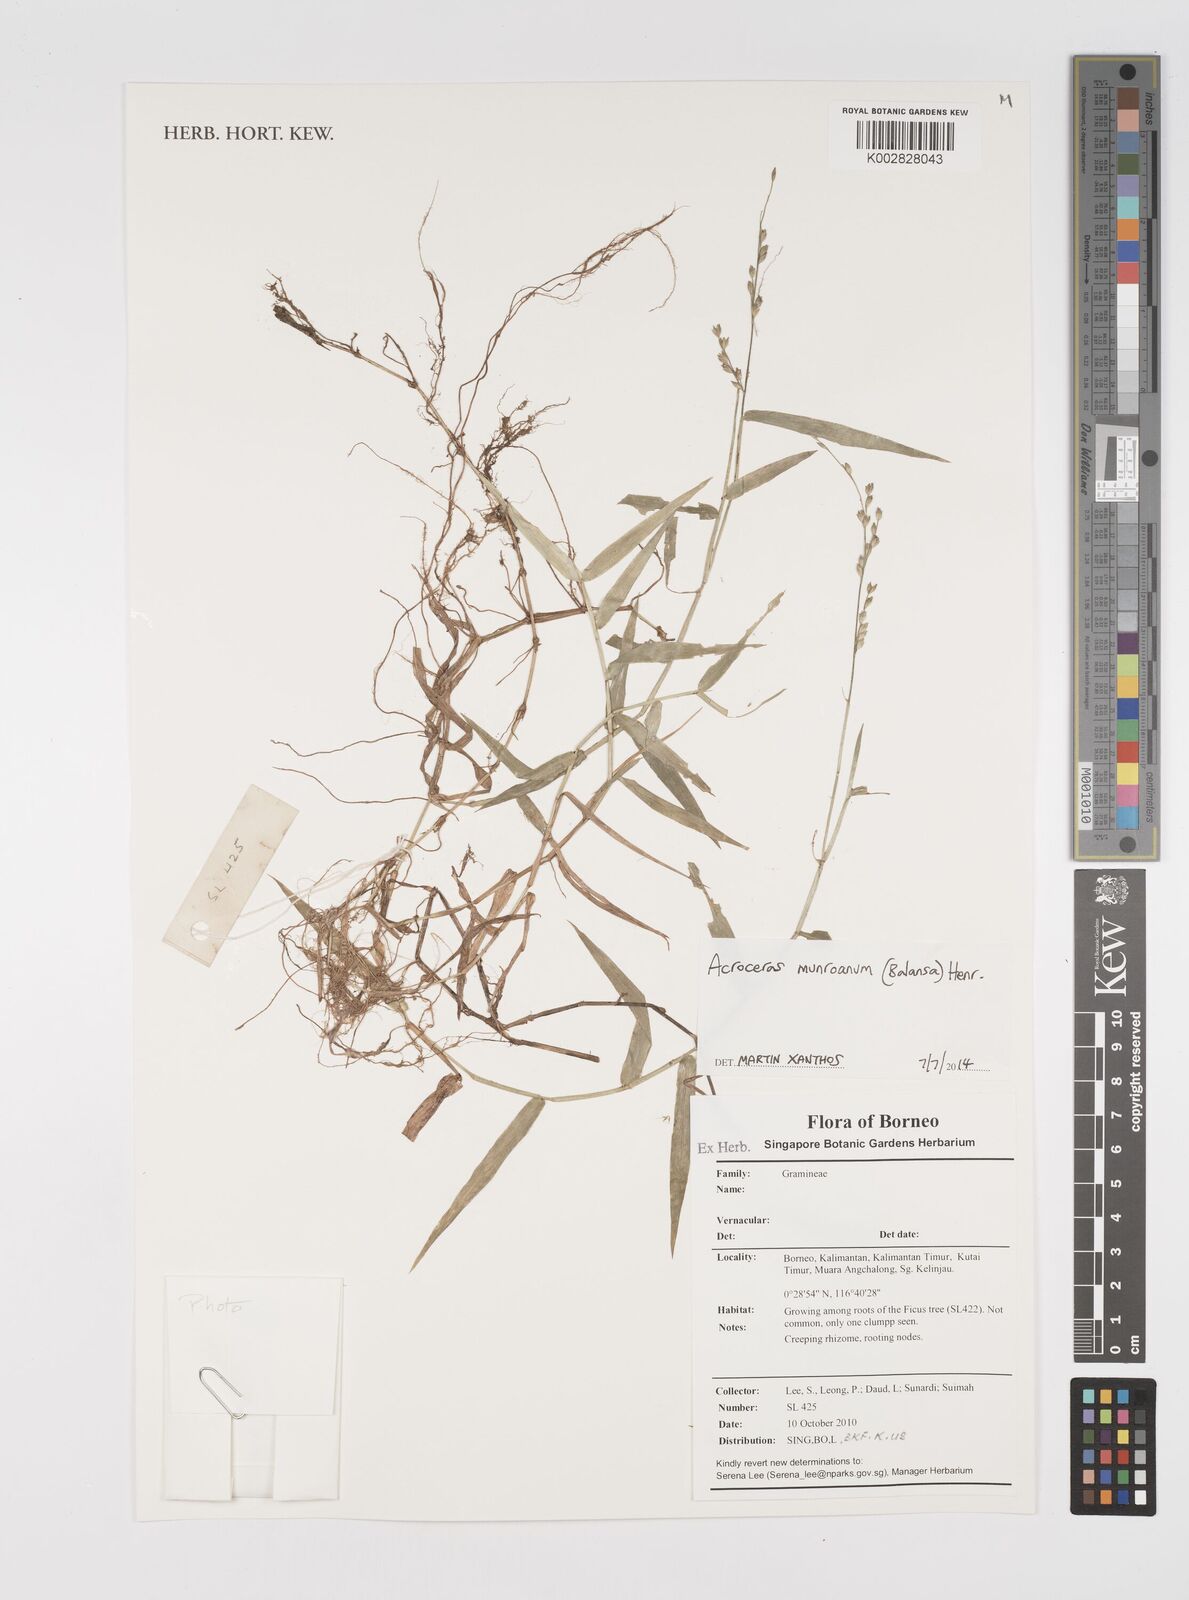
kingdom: Plantae
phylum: Tracheophyta
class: Liliopsida
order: Poales
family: Poaceae
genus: Acroceras
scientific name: Acroceras munroanum
